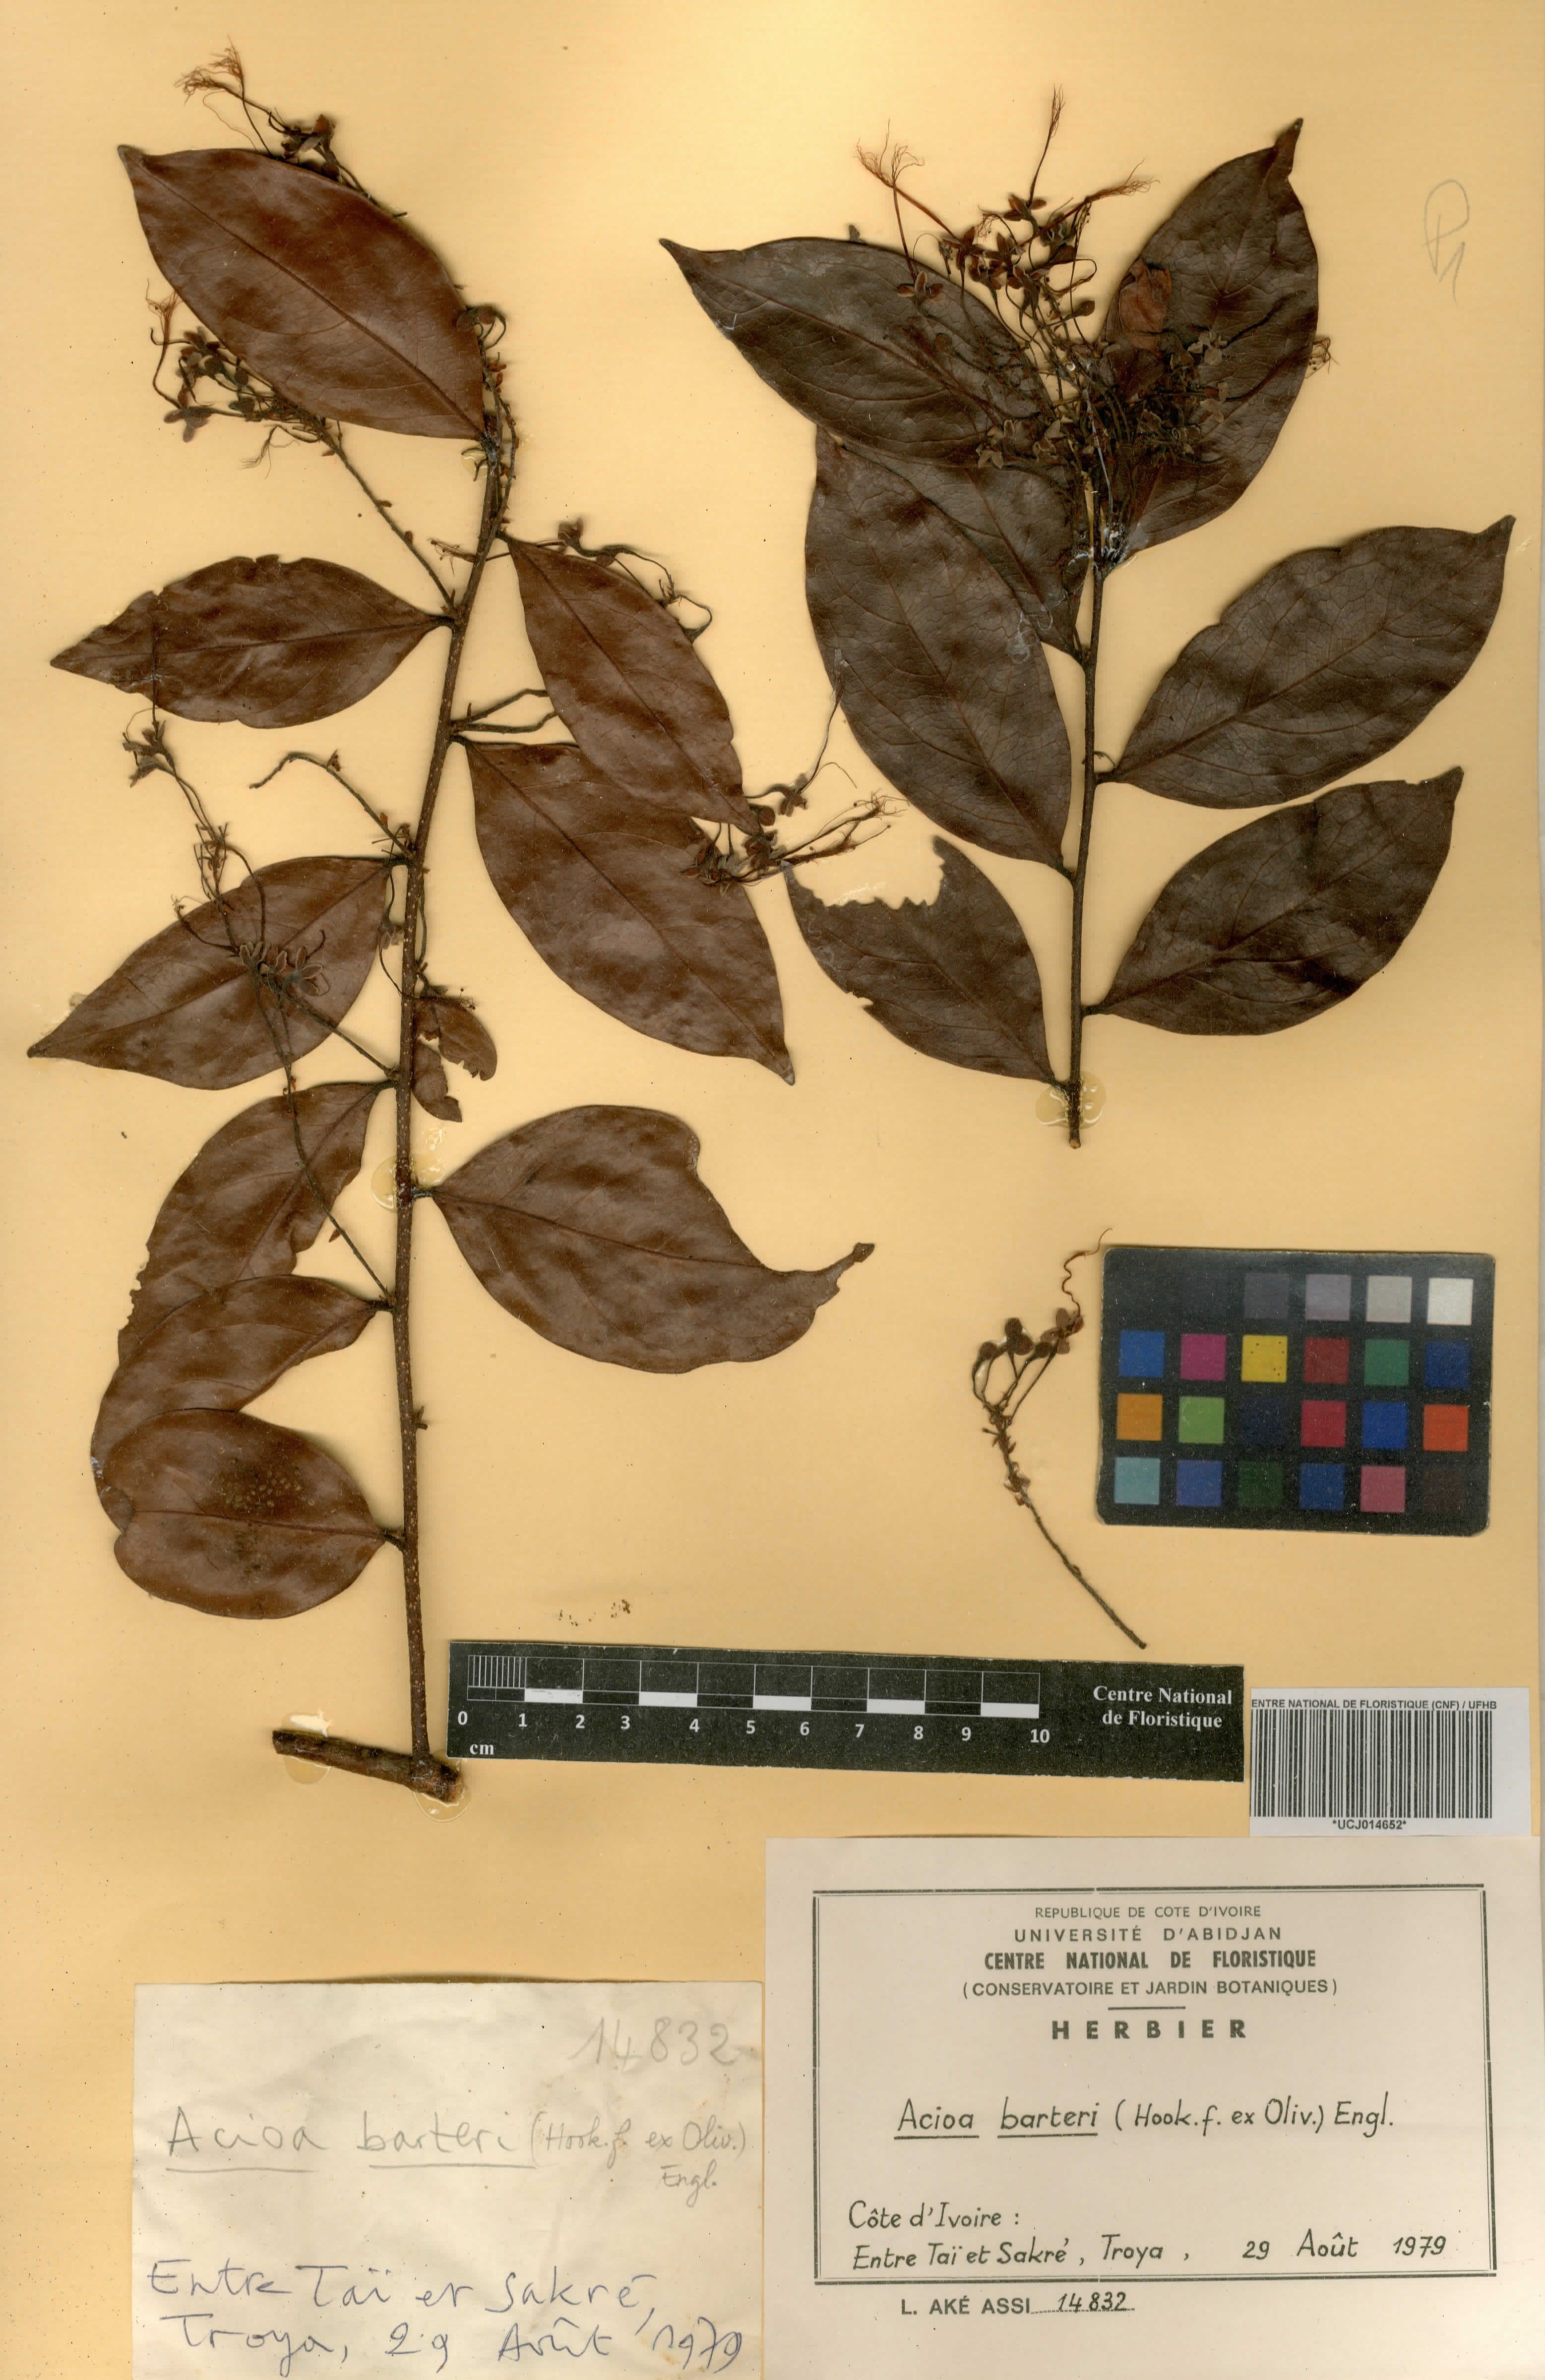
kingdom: Plantae
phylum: Tracheophyta
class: Magnoliopsida
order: Malpighiales
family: Chrysobalanaceae
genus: Dactyladenia
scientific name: Dactyladenia barteri
